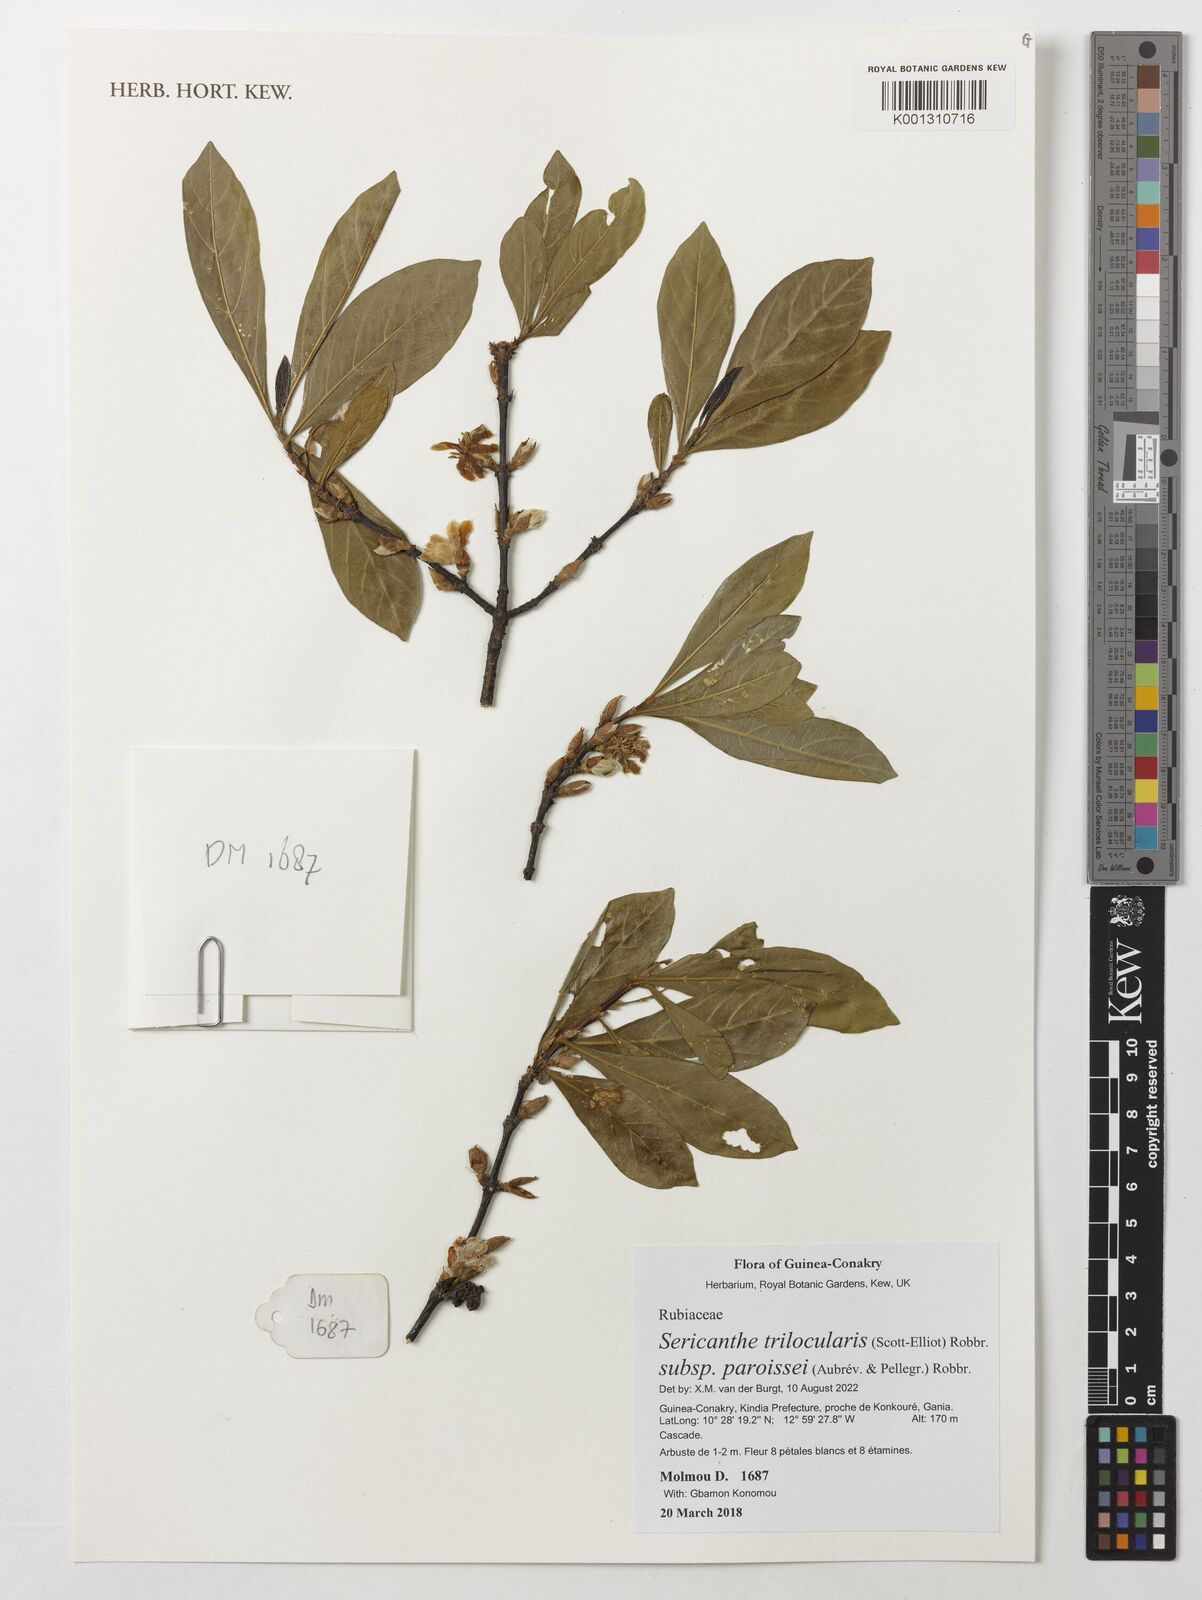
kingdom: Plantae
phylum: Tracheophyta
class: Magnoliopsida
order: Gentianales
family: Rubiaceae
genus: Sericanthe
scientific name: Sericanthe trilocularis
